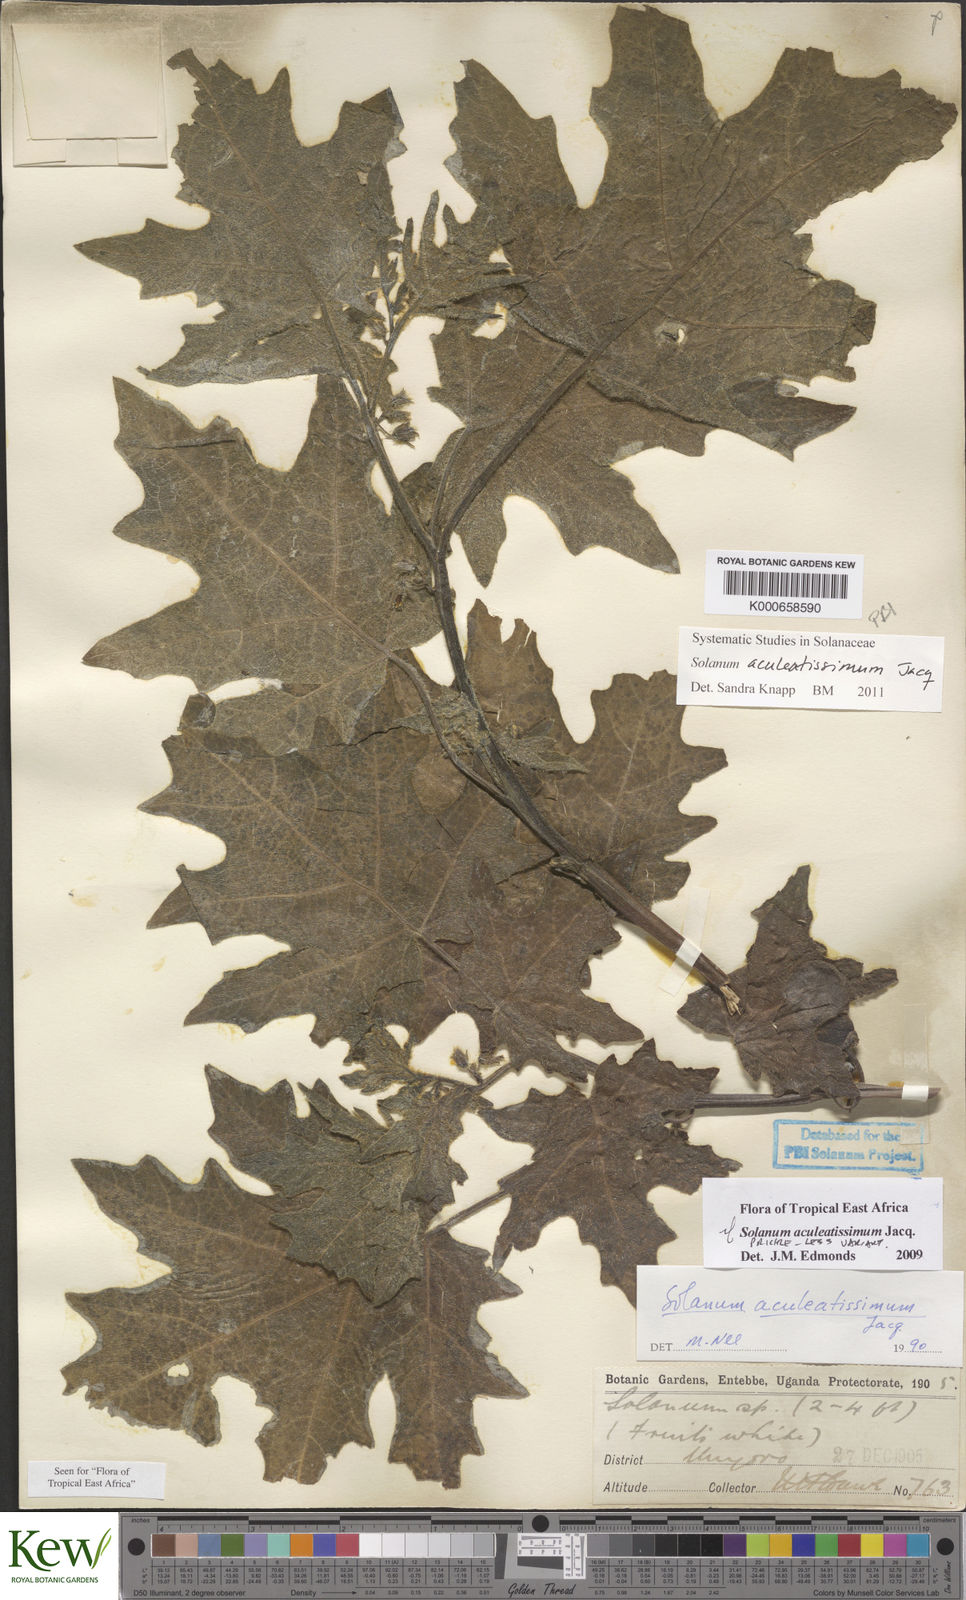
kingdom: Plantae
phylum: Tracheophyta
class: Magnoliopsida
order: Solanales
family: Solanaceae
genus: Solanum
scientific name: Solanum aculeatissimum
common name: Dutch eggplant
